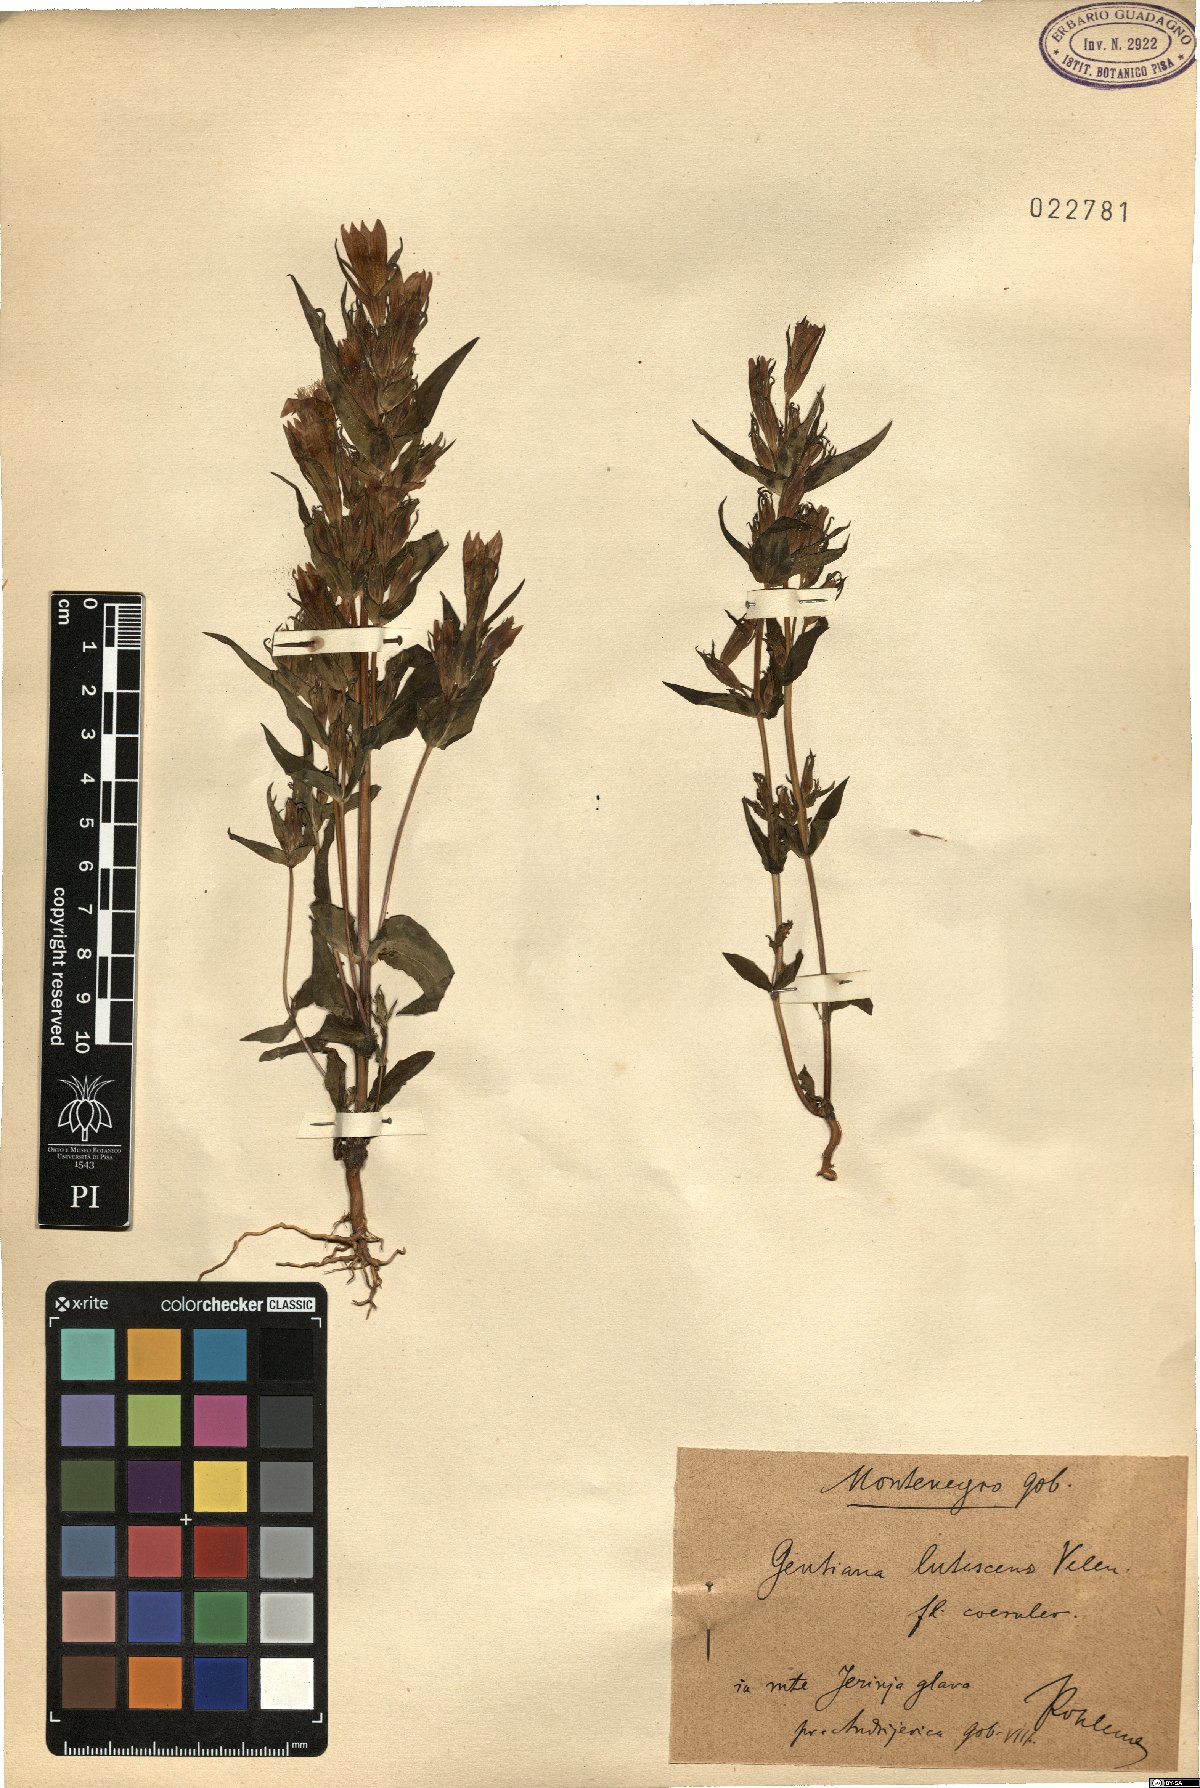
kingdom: Plantae
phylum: Tracheophyta
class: Magnoliopsida
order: Gentianales
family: Gentianaceae
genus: Gentianella
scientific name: Gentianella praecox
